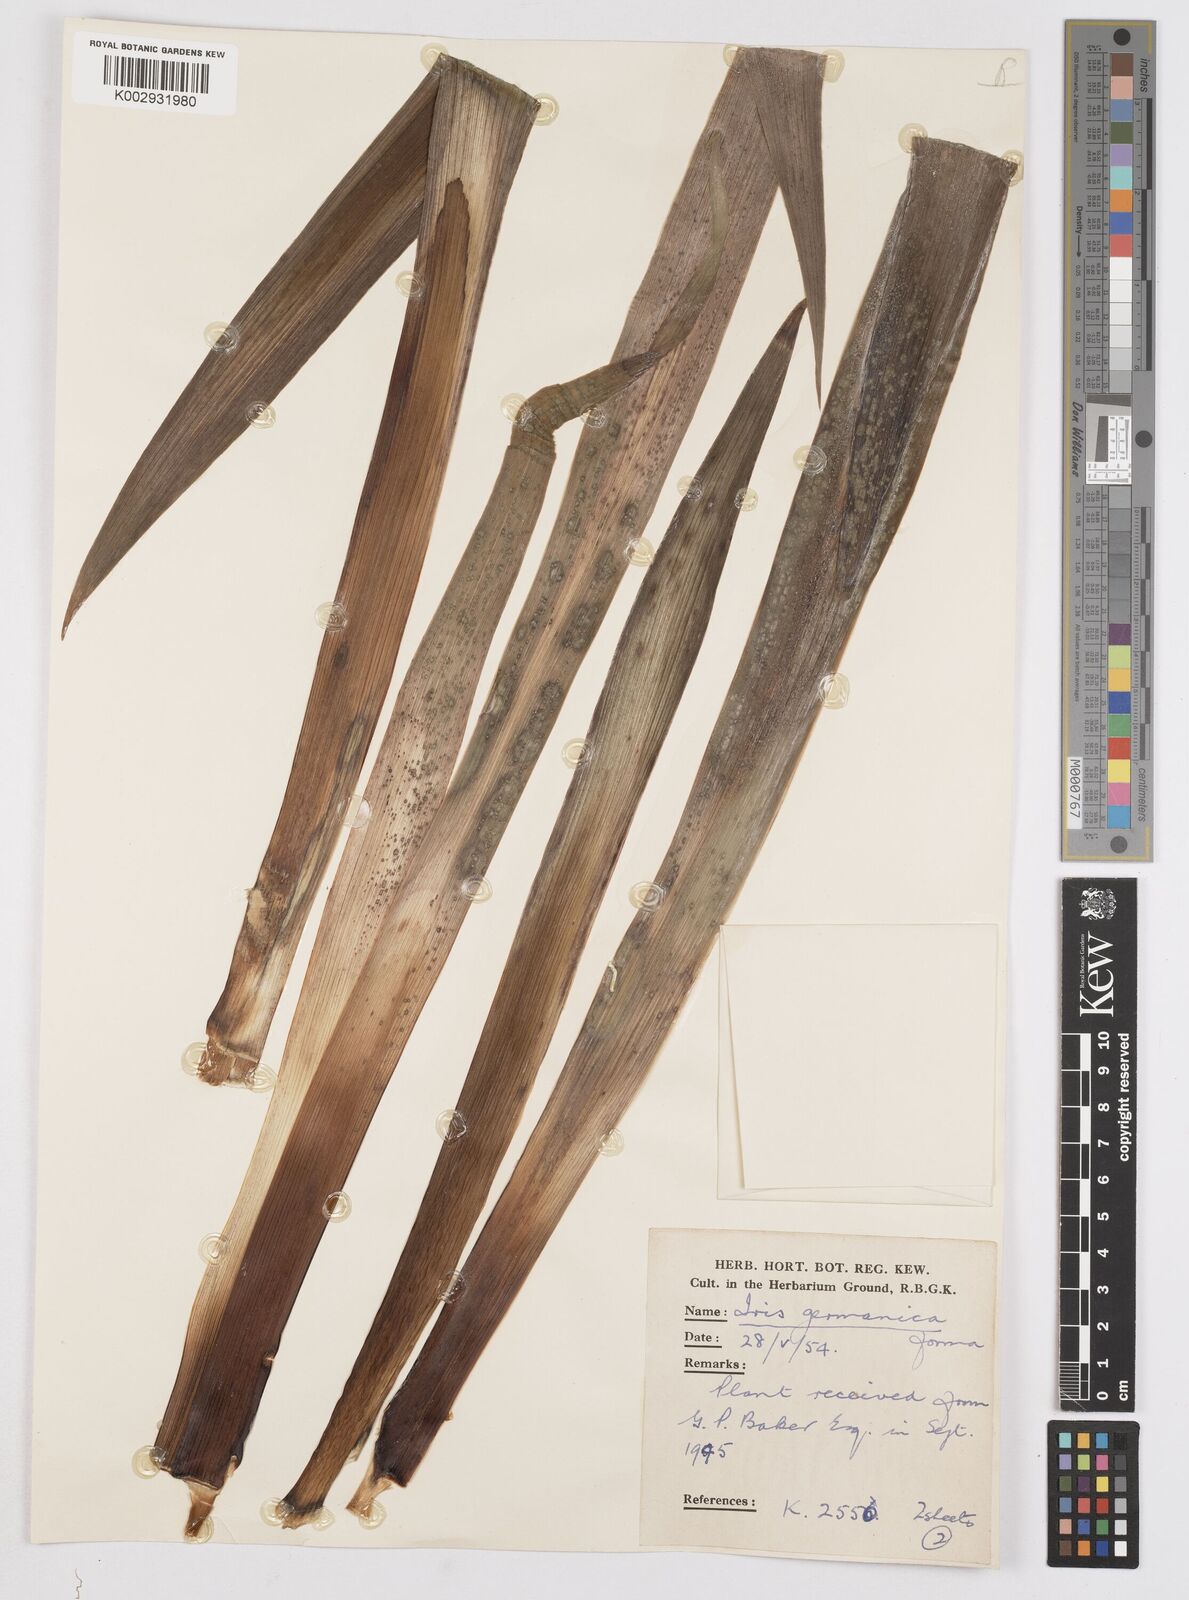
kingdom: Plantae
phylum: Tracheophyta
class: Liliopsida
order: Asparagales
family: Iridaceae
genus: Iris
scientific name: Iris
